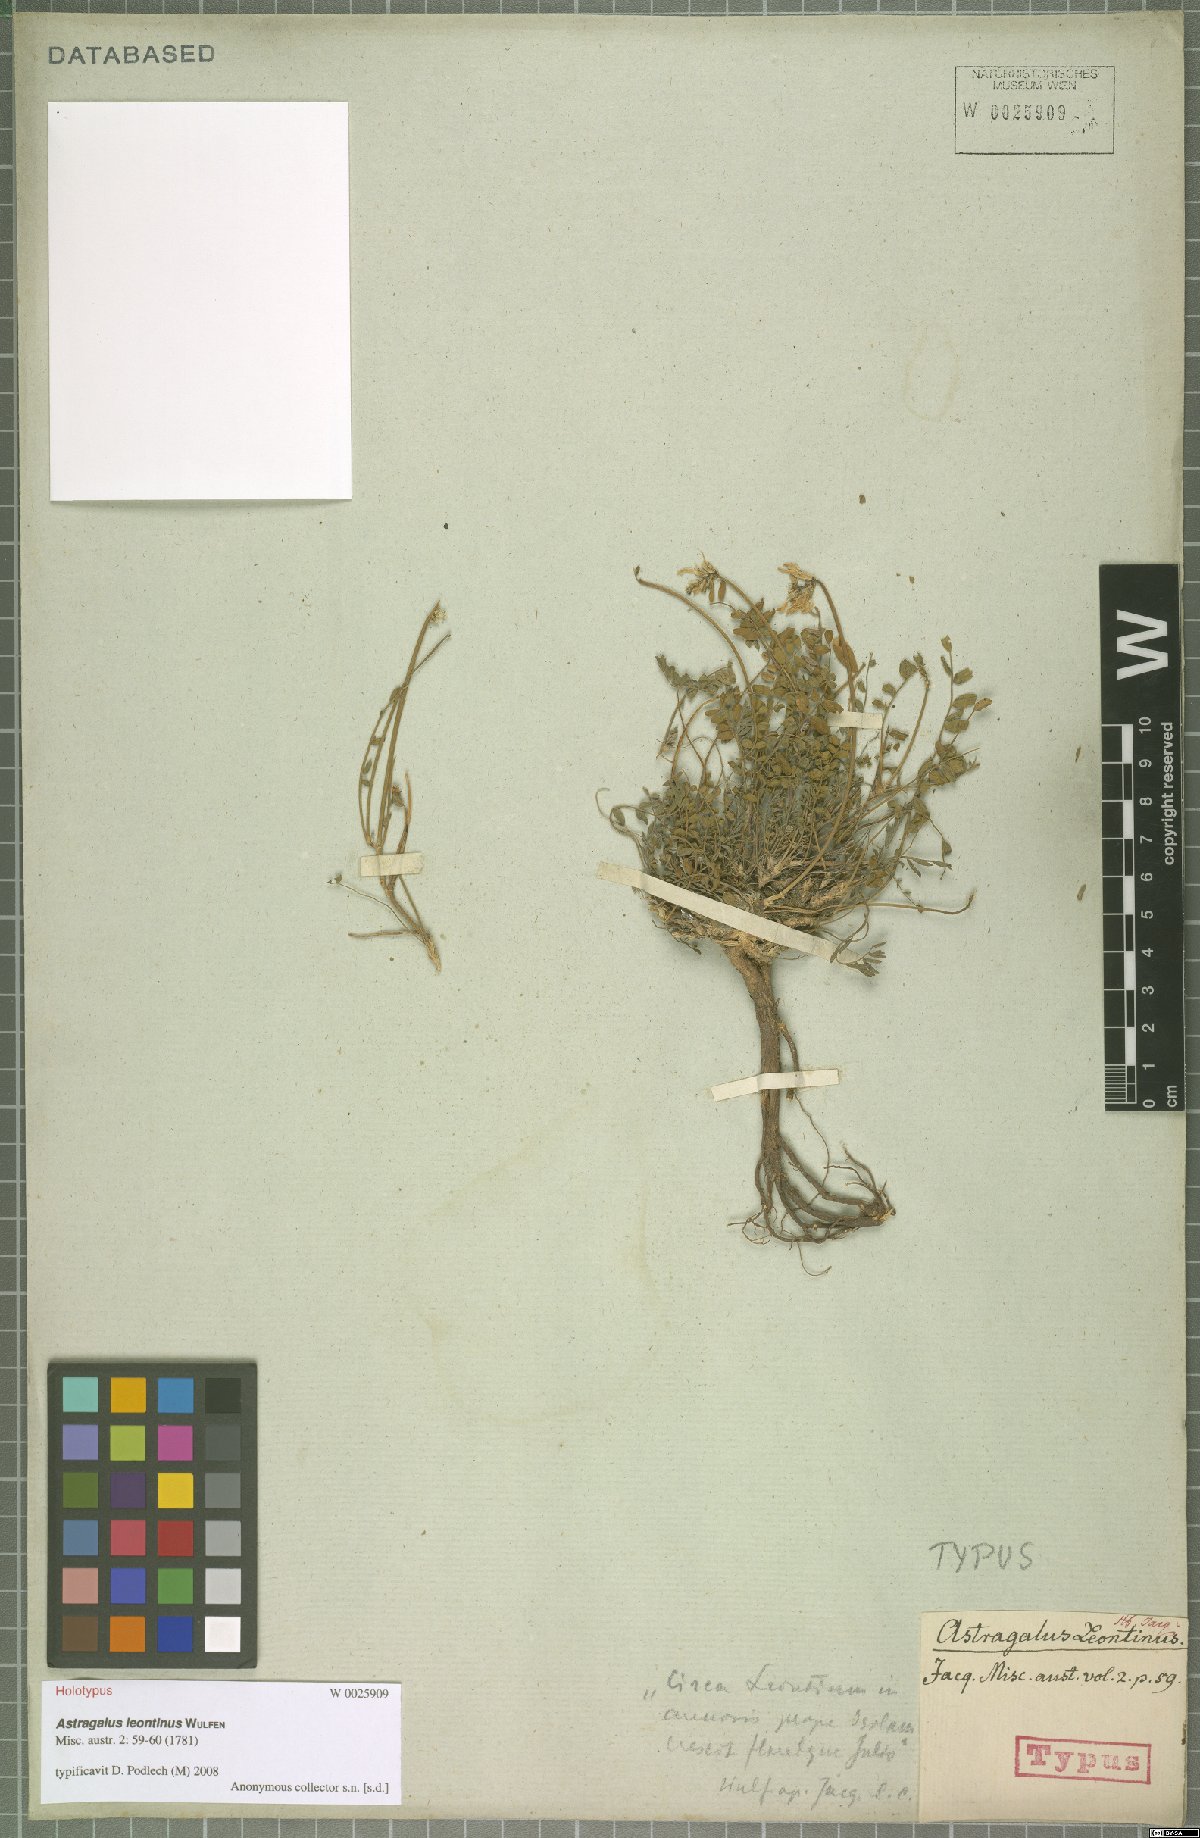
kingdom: Plantae
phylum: Tracheophyta
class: Magnoliopsida
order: Fabales
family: Fabaceae
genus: Astragalus
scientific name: Astragalus leontinus
